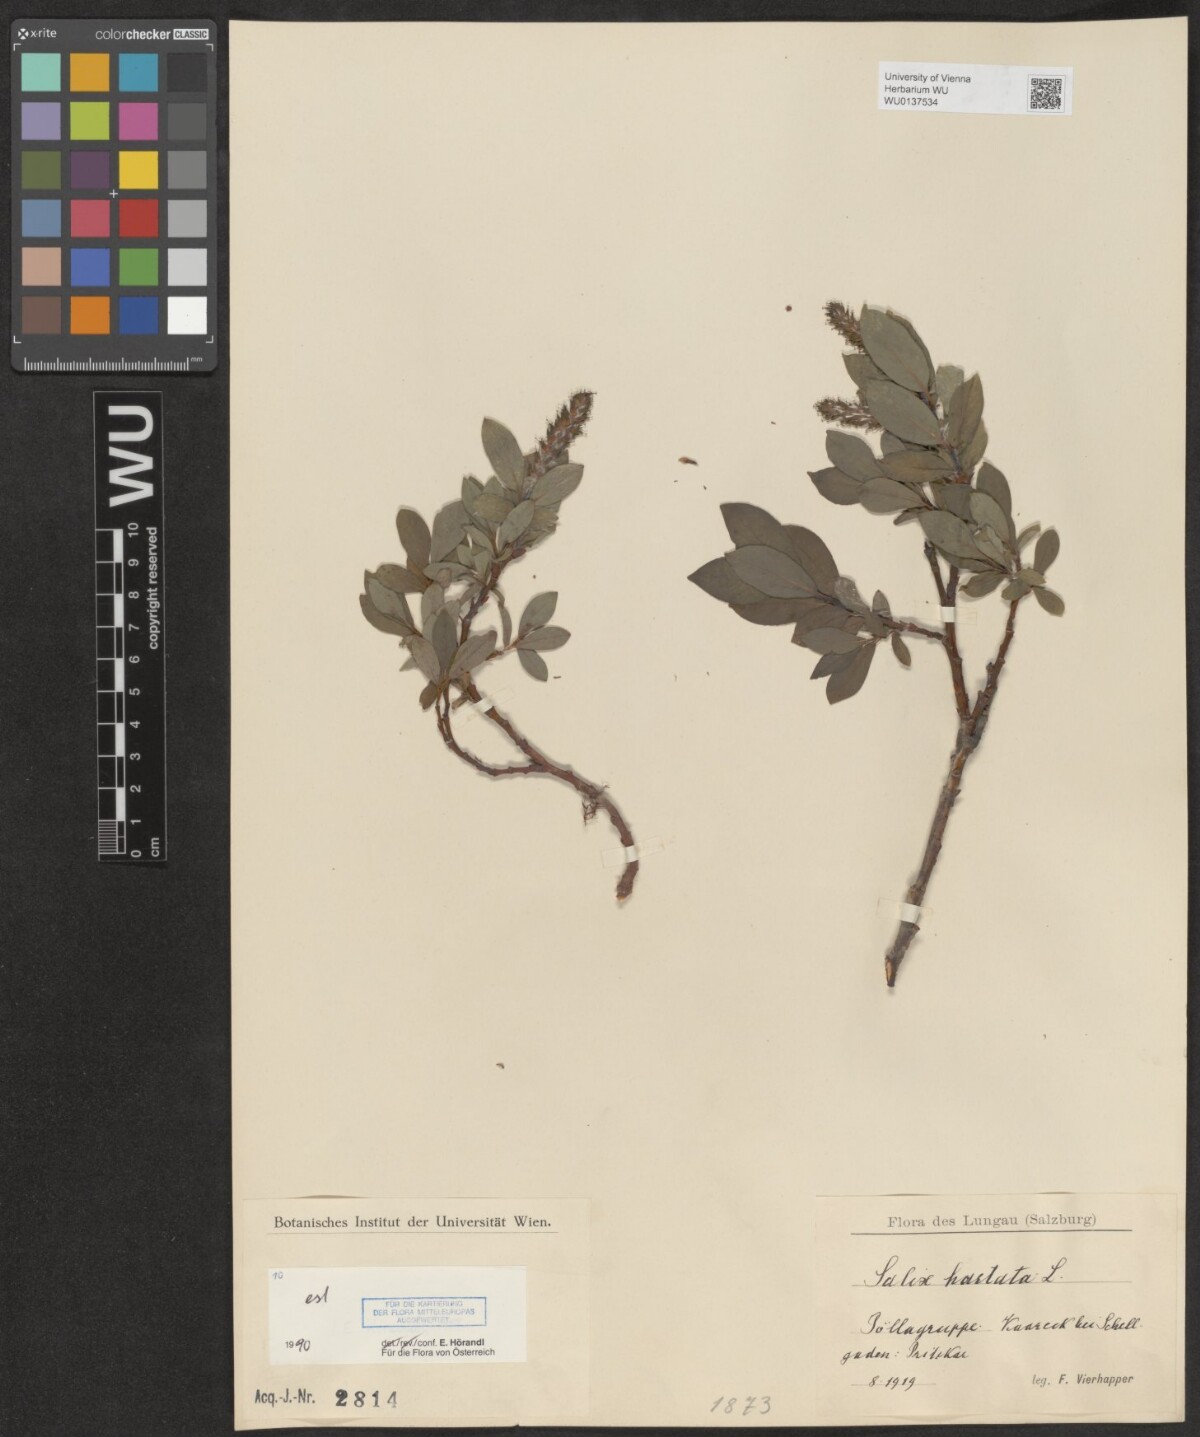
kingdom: Plantae
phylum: Tracheophyta
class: Magnoliopsida
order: Malpighiales
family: Salicaceae
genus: Salix
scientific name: Salix hastata
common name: Halberd willow
